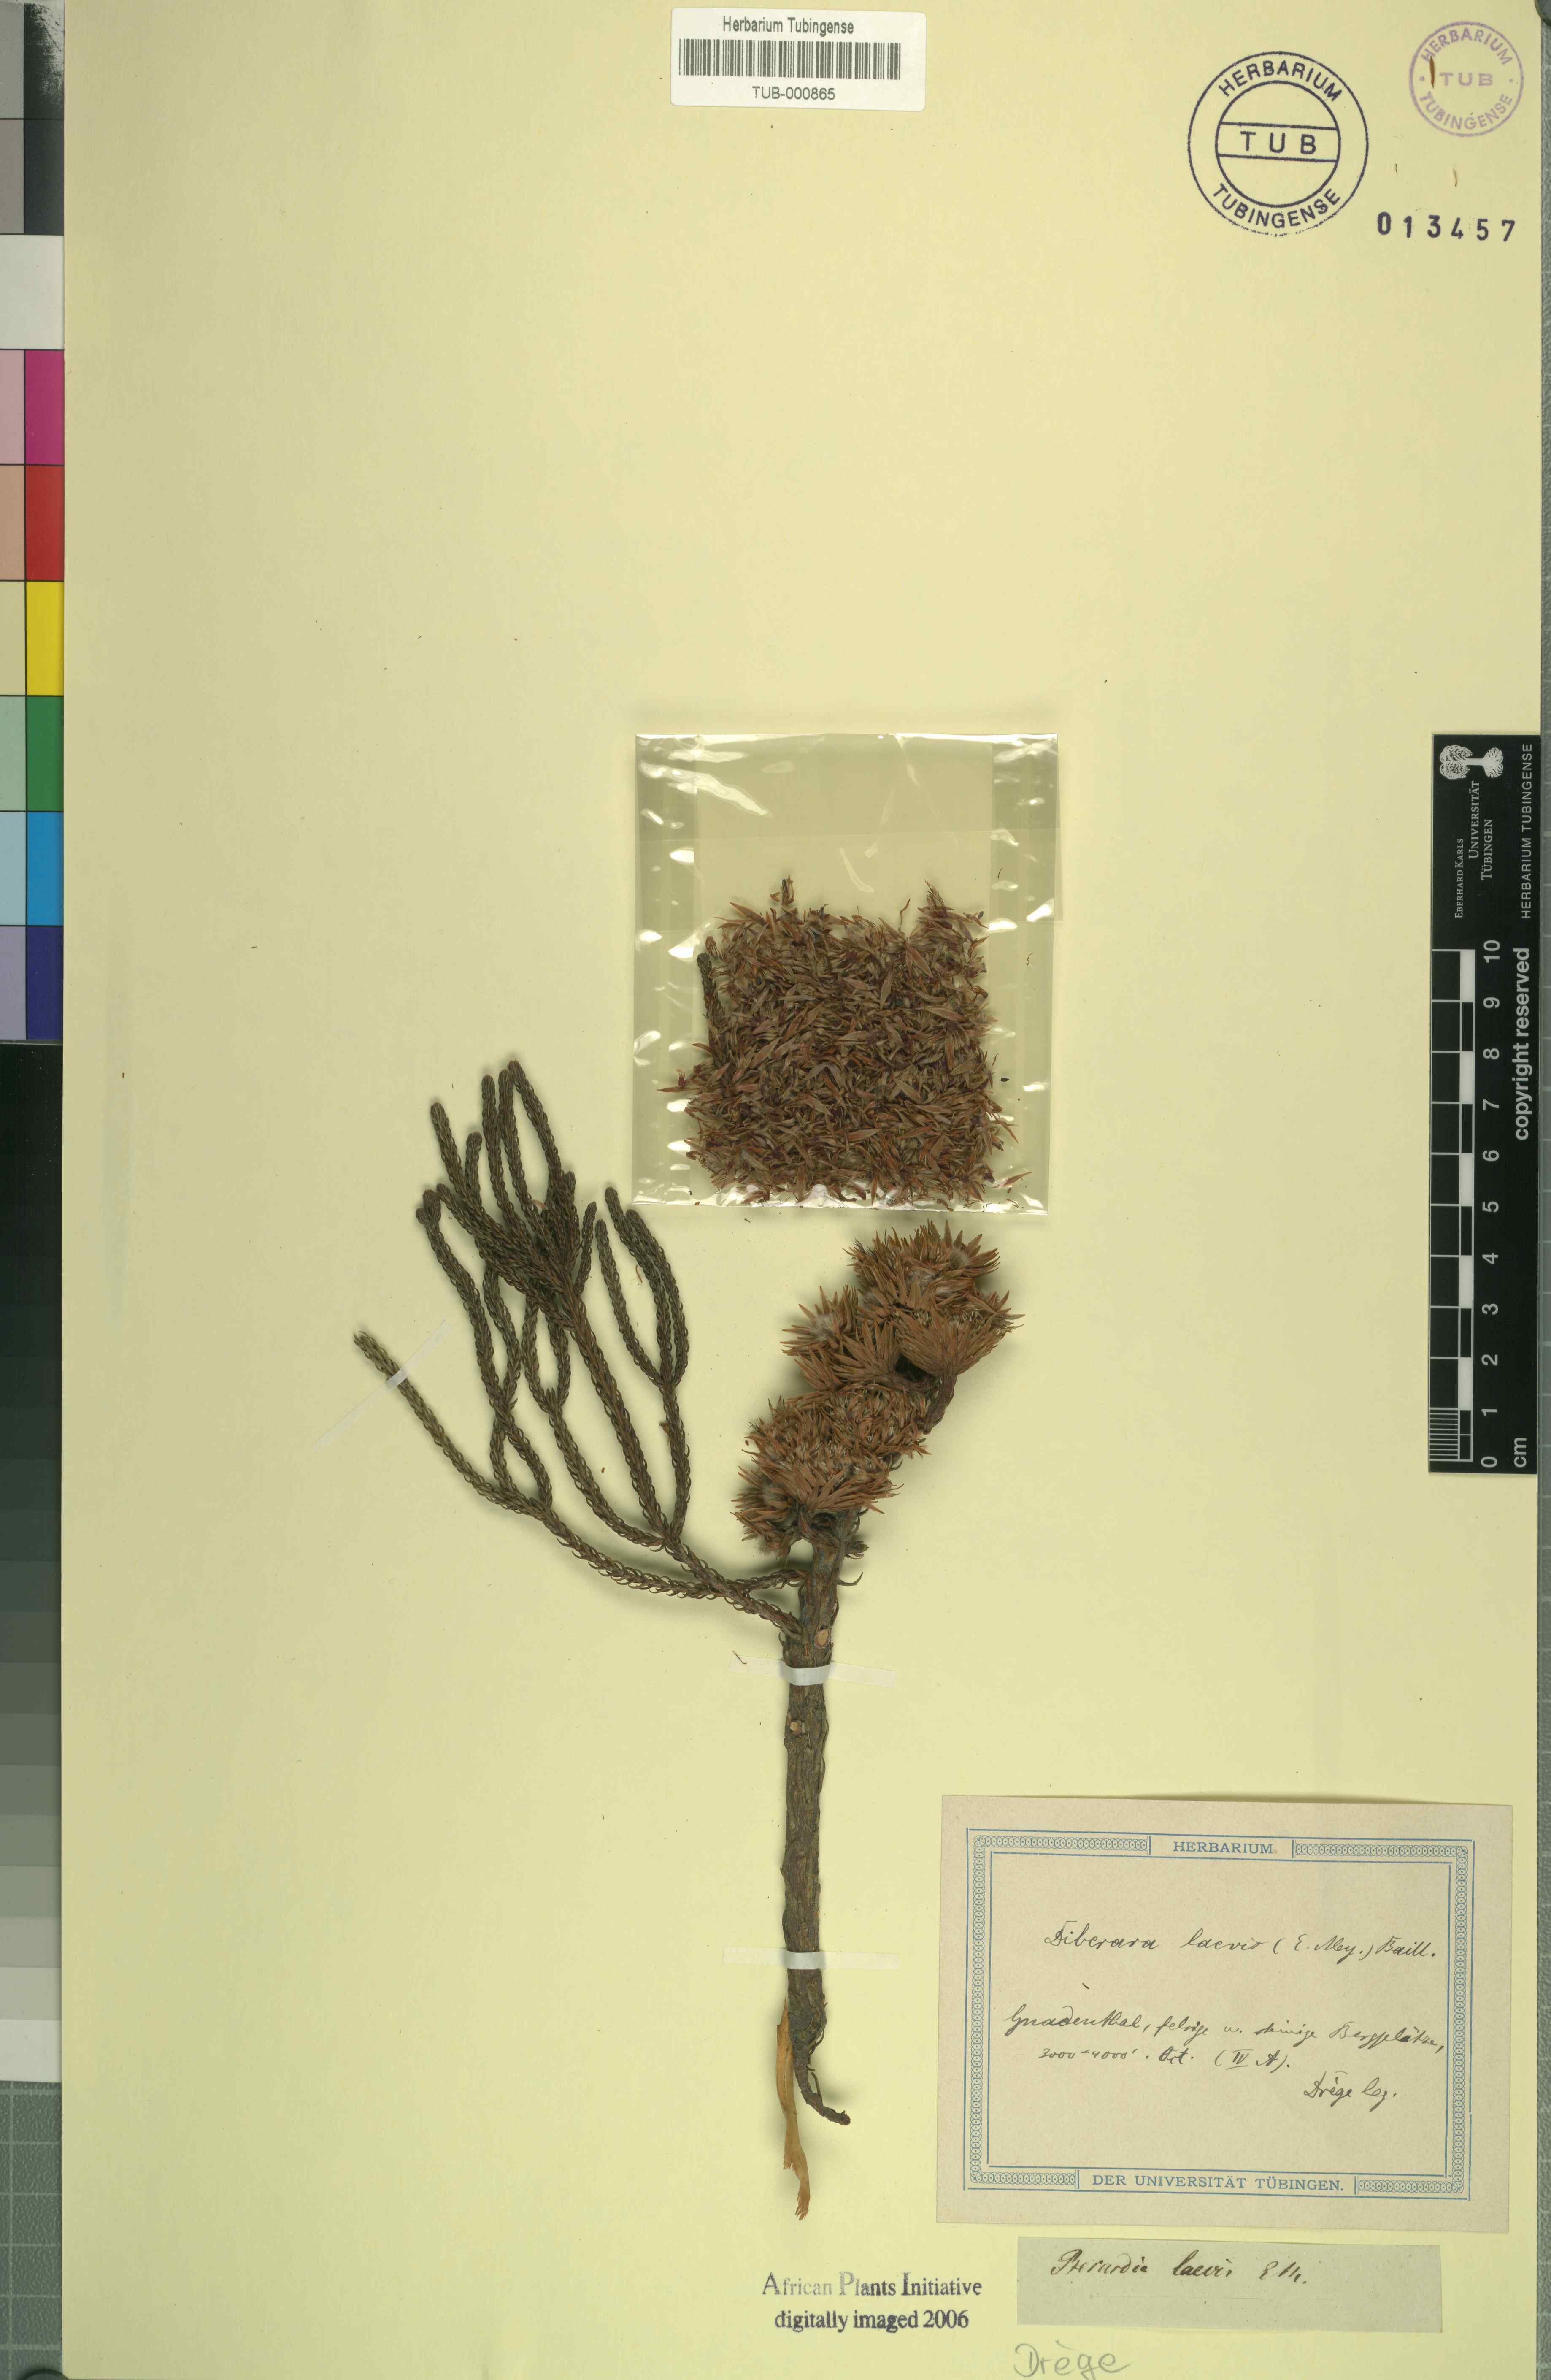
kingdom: Plantae
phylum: Tracheophyta
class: Magnoliopsida
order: Bruniales
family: Bruniaceae
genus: Brunia
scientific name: Brunia
